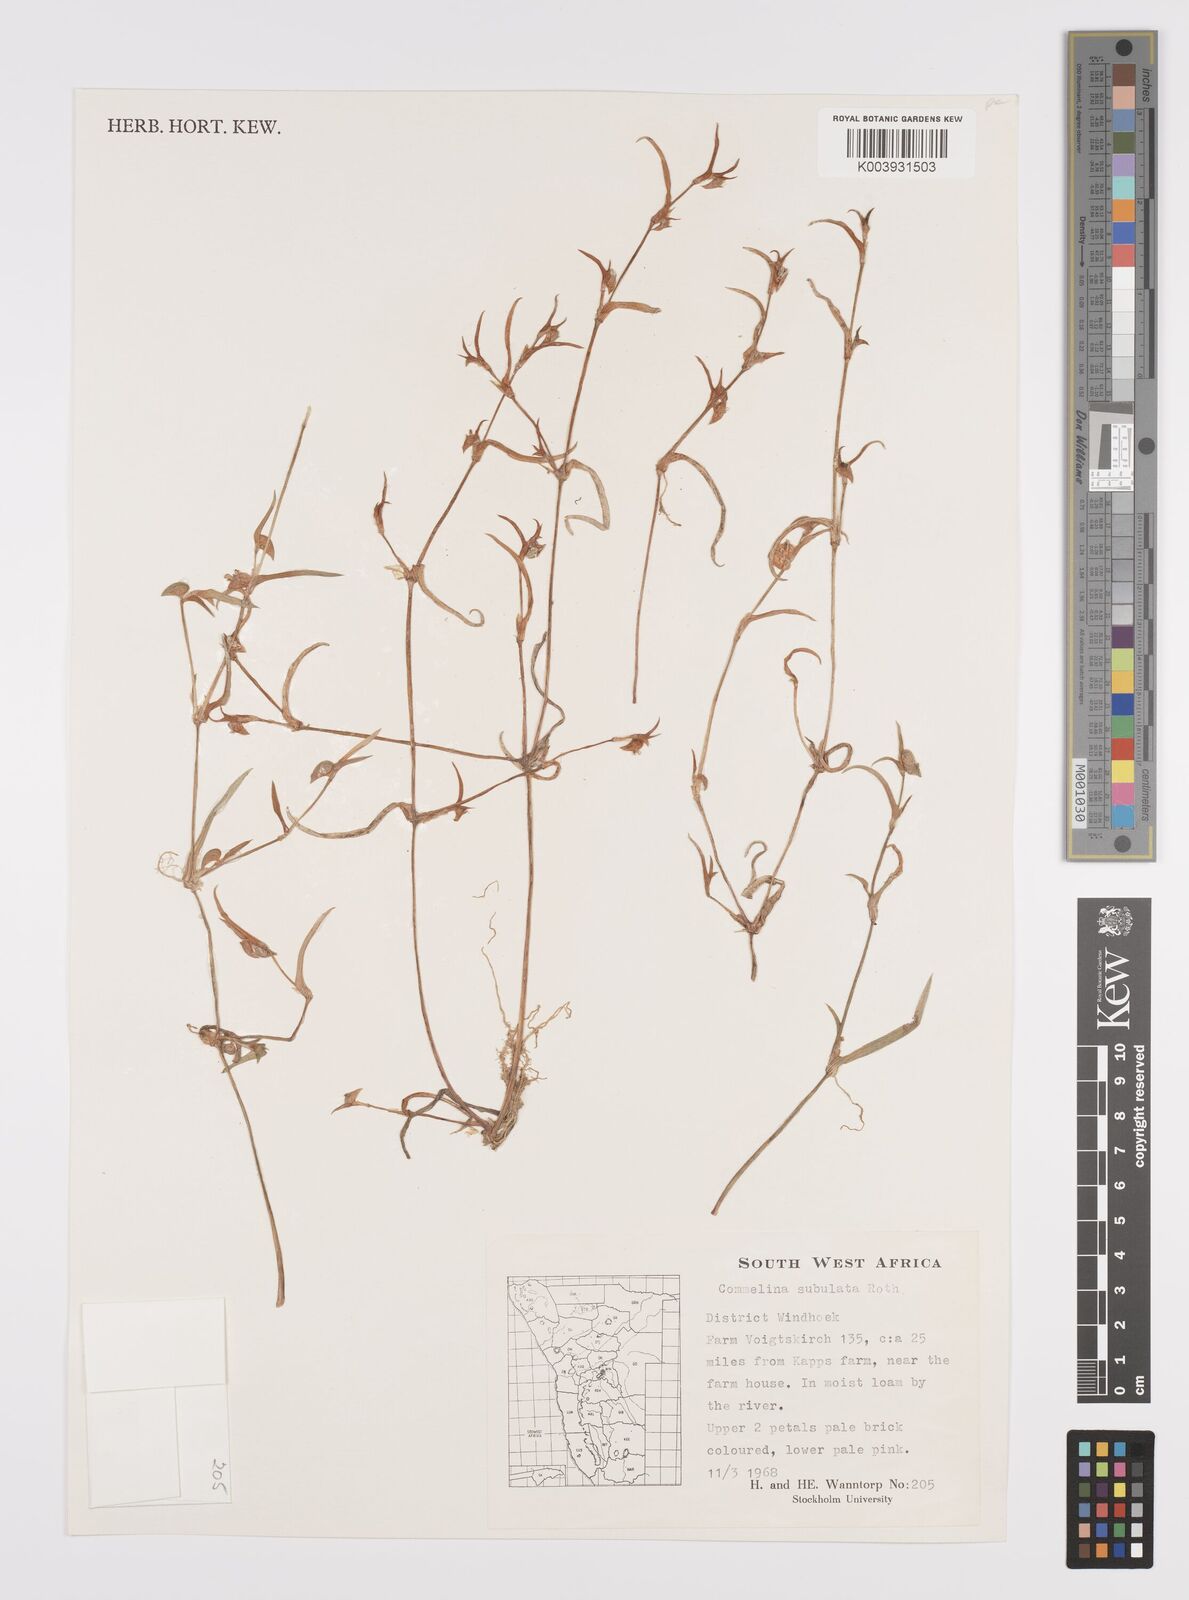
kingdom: Plantae
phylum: Tracheophyta
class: Liliopsida
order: Commelinales
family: Commelinaceae
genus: Commelina
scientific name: Commelina subulata
